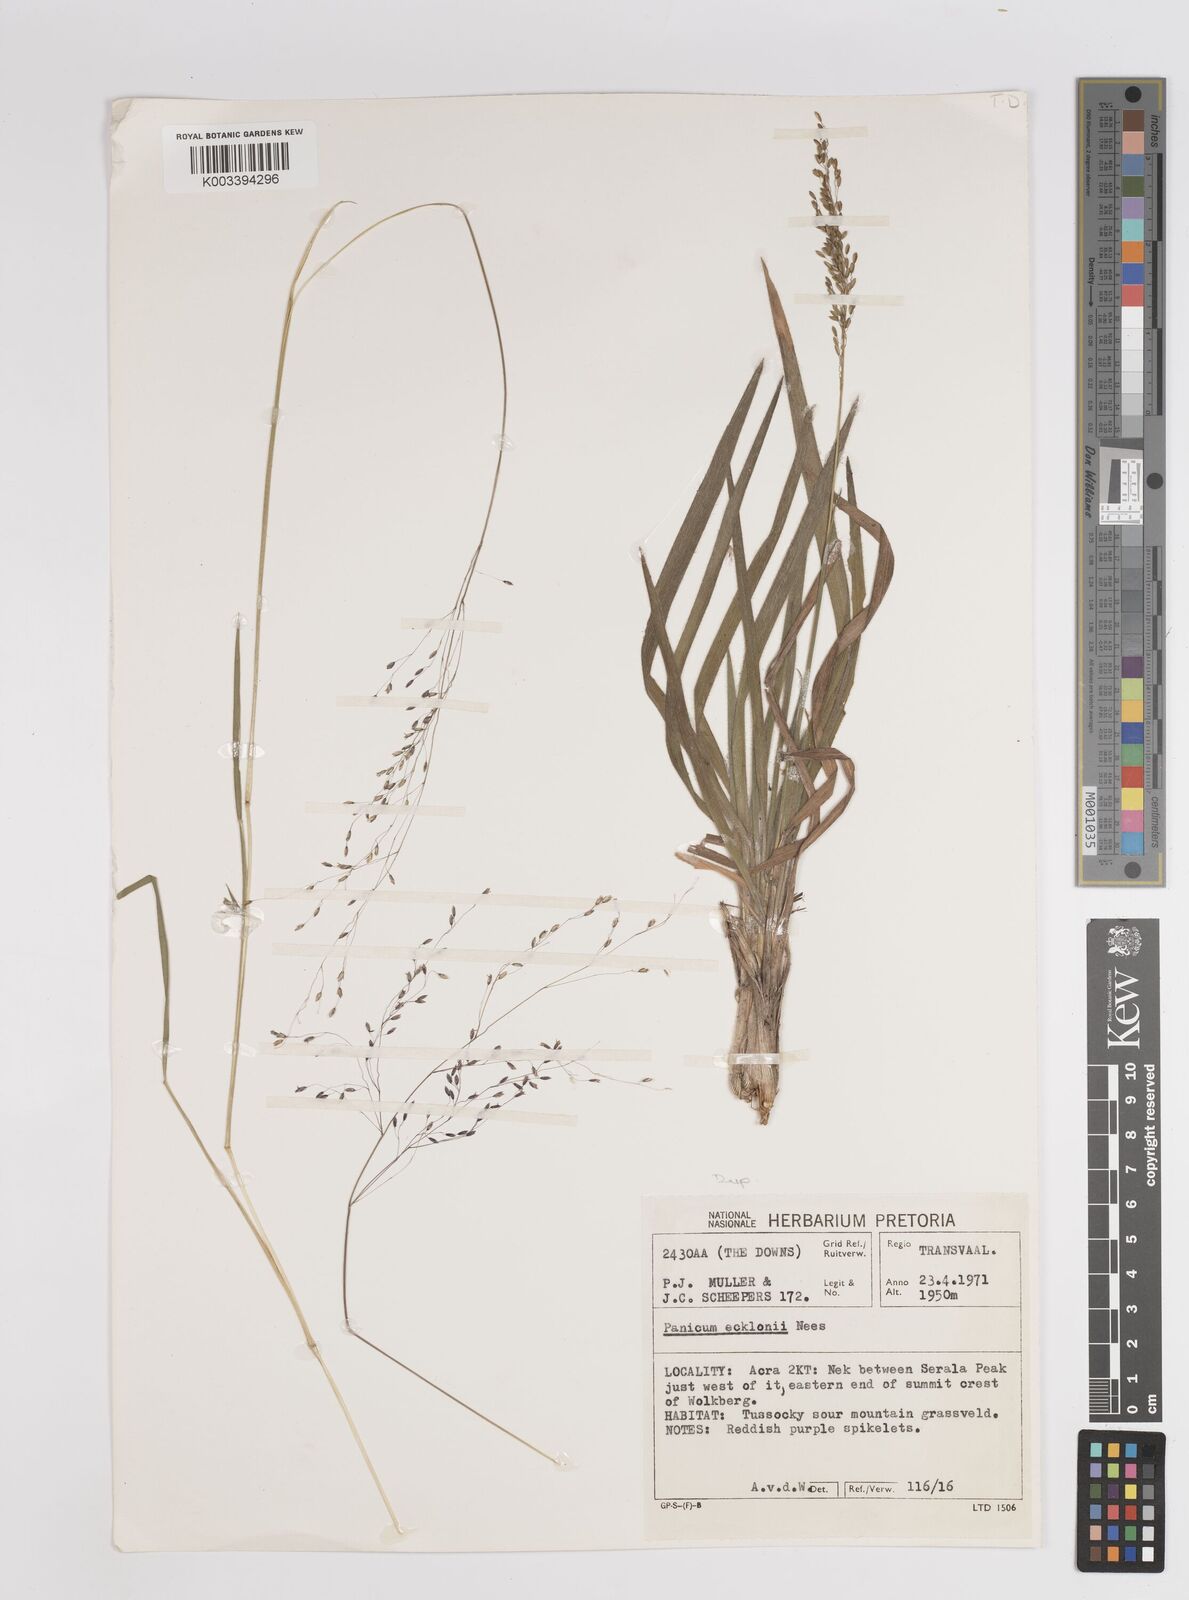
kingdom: Plantae
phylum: Tracheophyta
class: Liliopsida
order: Poales
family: Poaceae
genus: Adenochloa
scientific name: Adenochloa ecklonii
